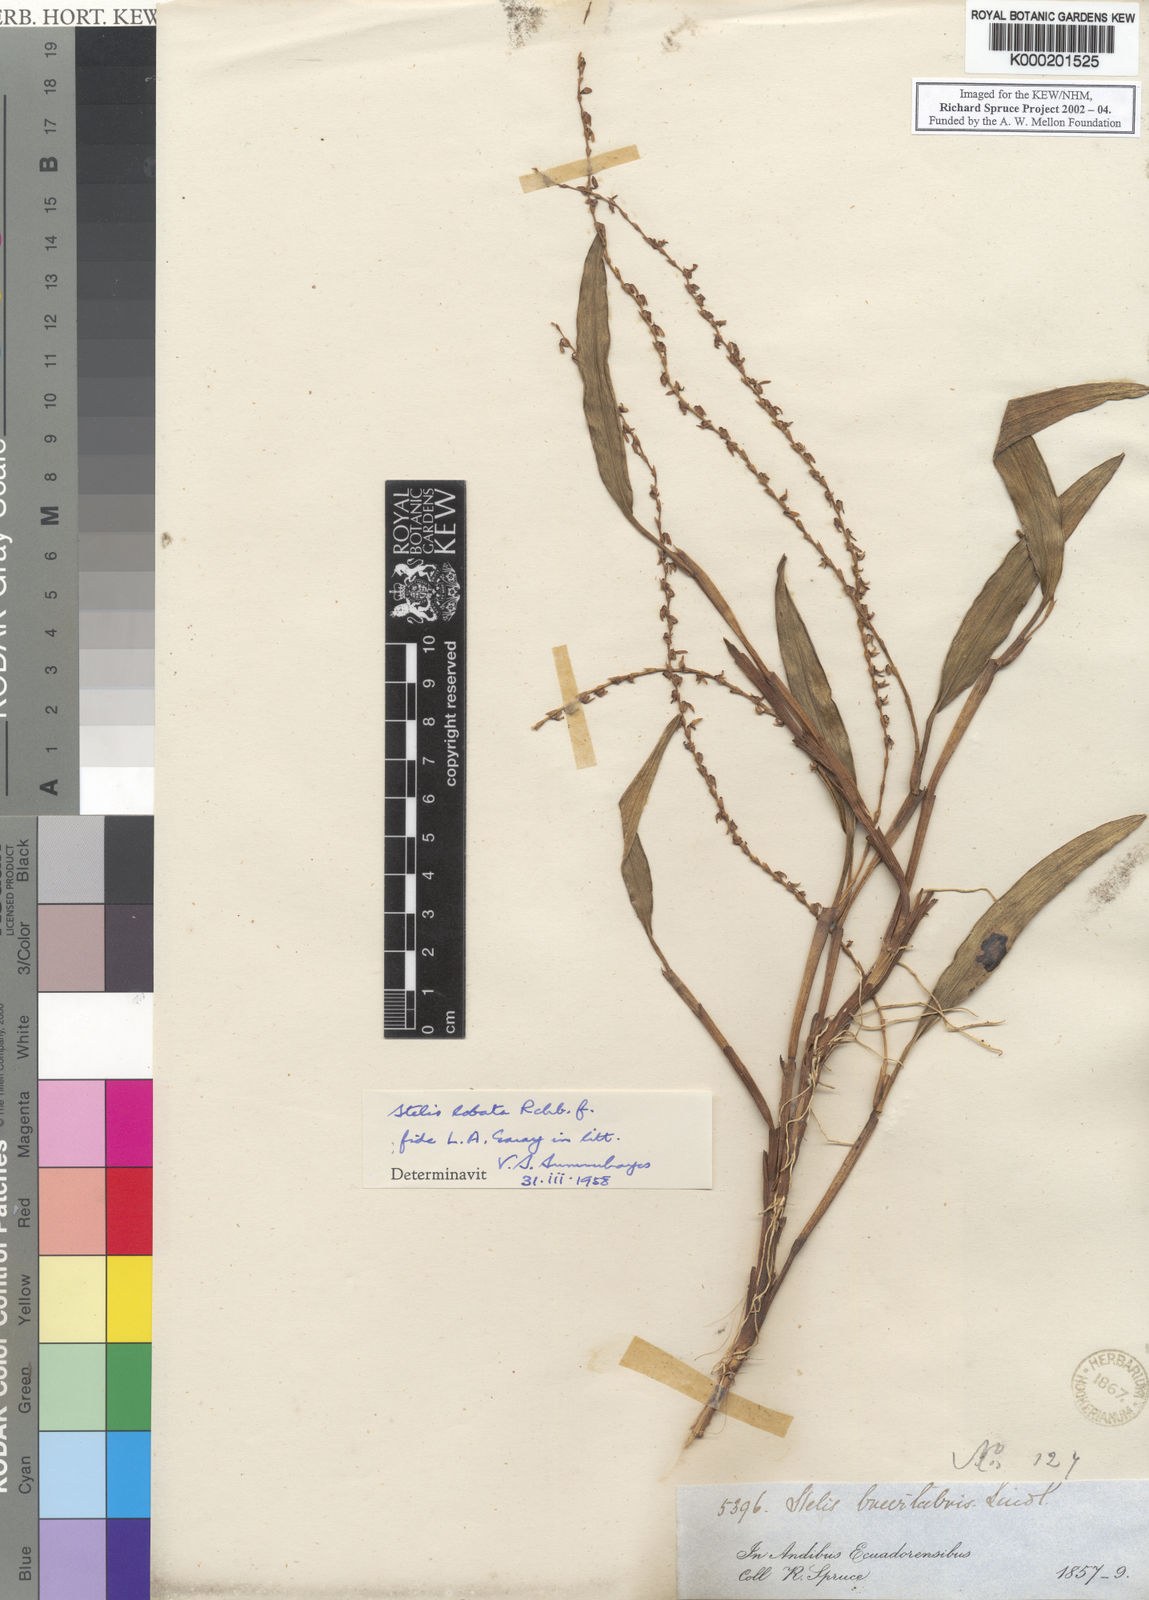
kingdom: Plantae
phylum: Tracheophyta
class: Liliopsida
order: Asparagales
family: Orchidaceae
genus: Stelis
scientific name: Stelis elongata
